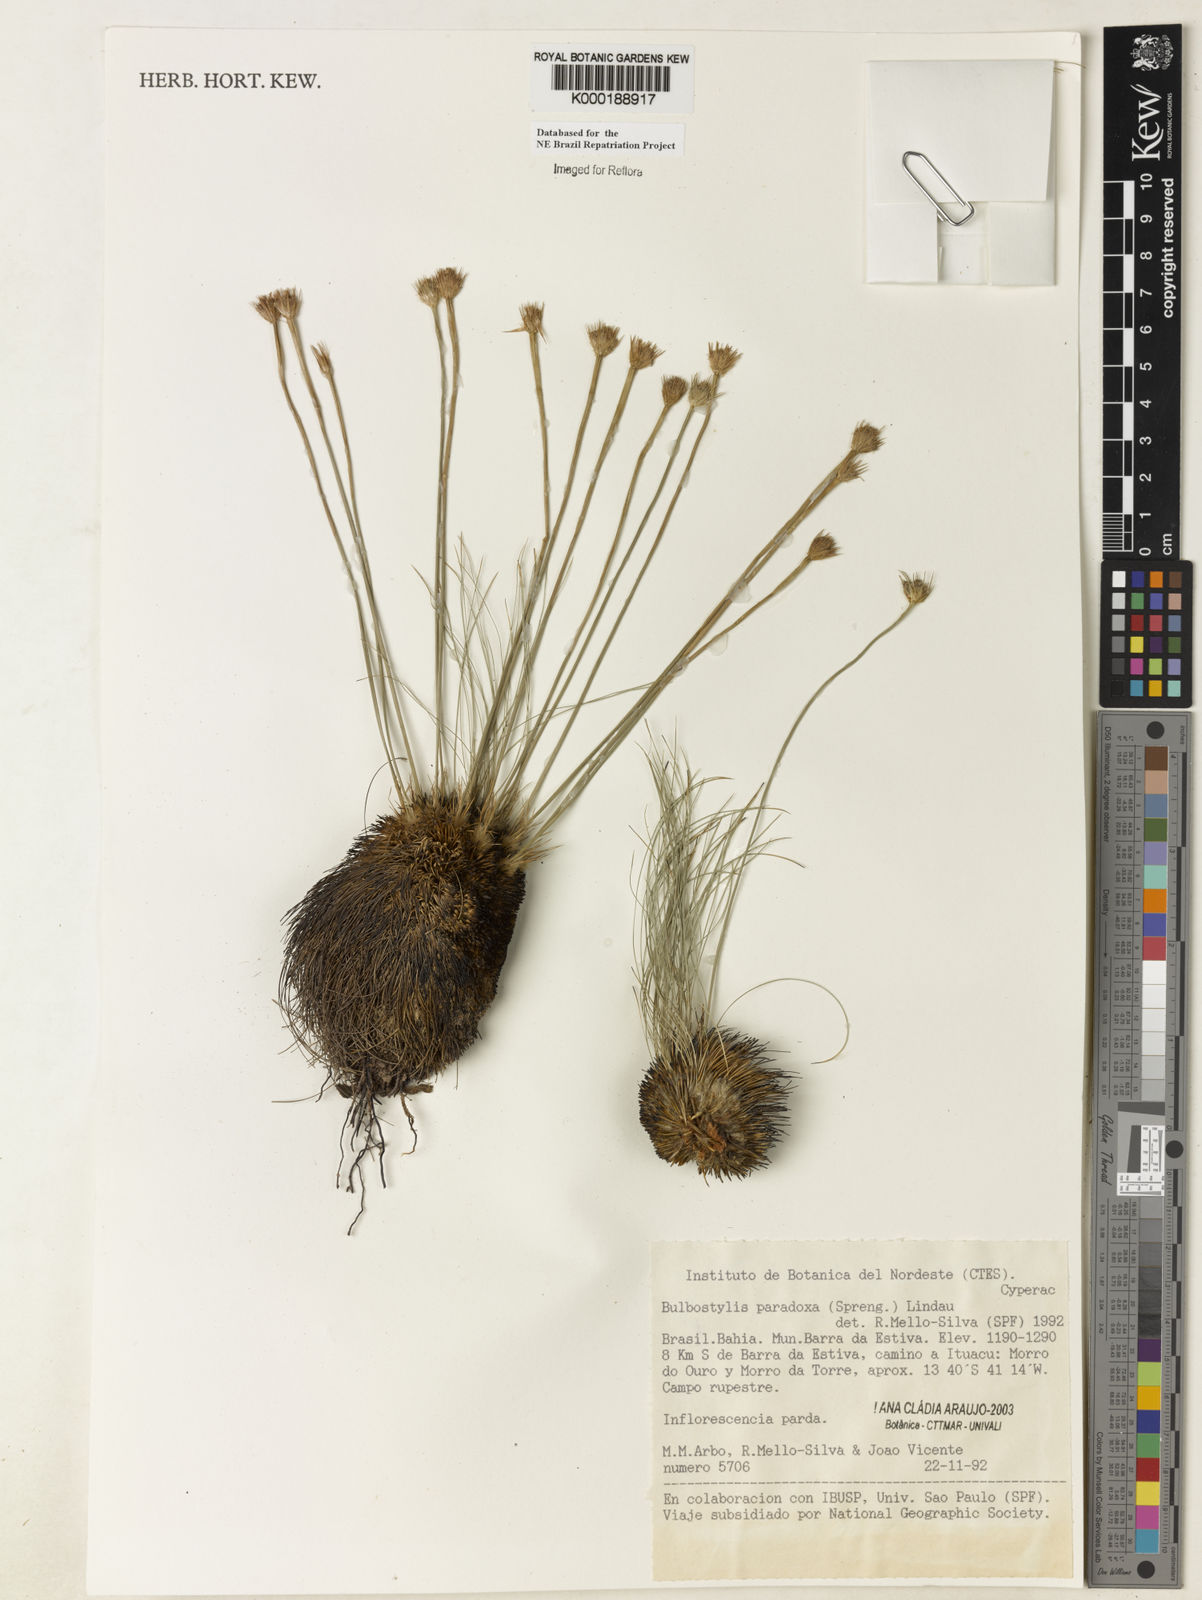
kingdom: Plantae
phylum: Tracheophyta
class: Liliopsida
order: Poales
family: Cyperaceae
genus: Bulbostylis
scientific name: Bulbostylis paradoxa
